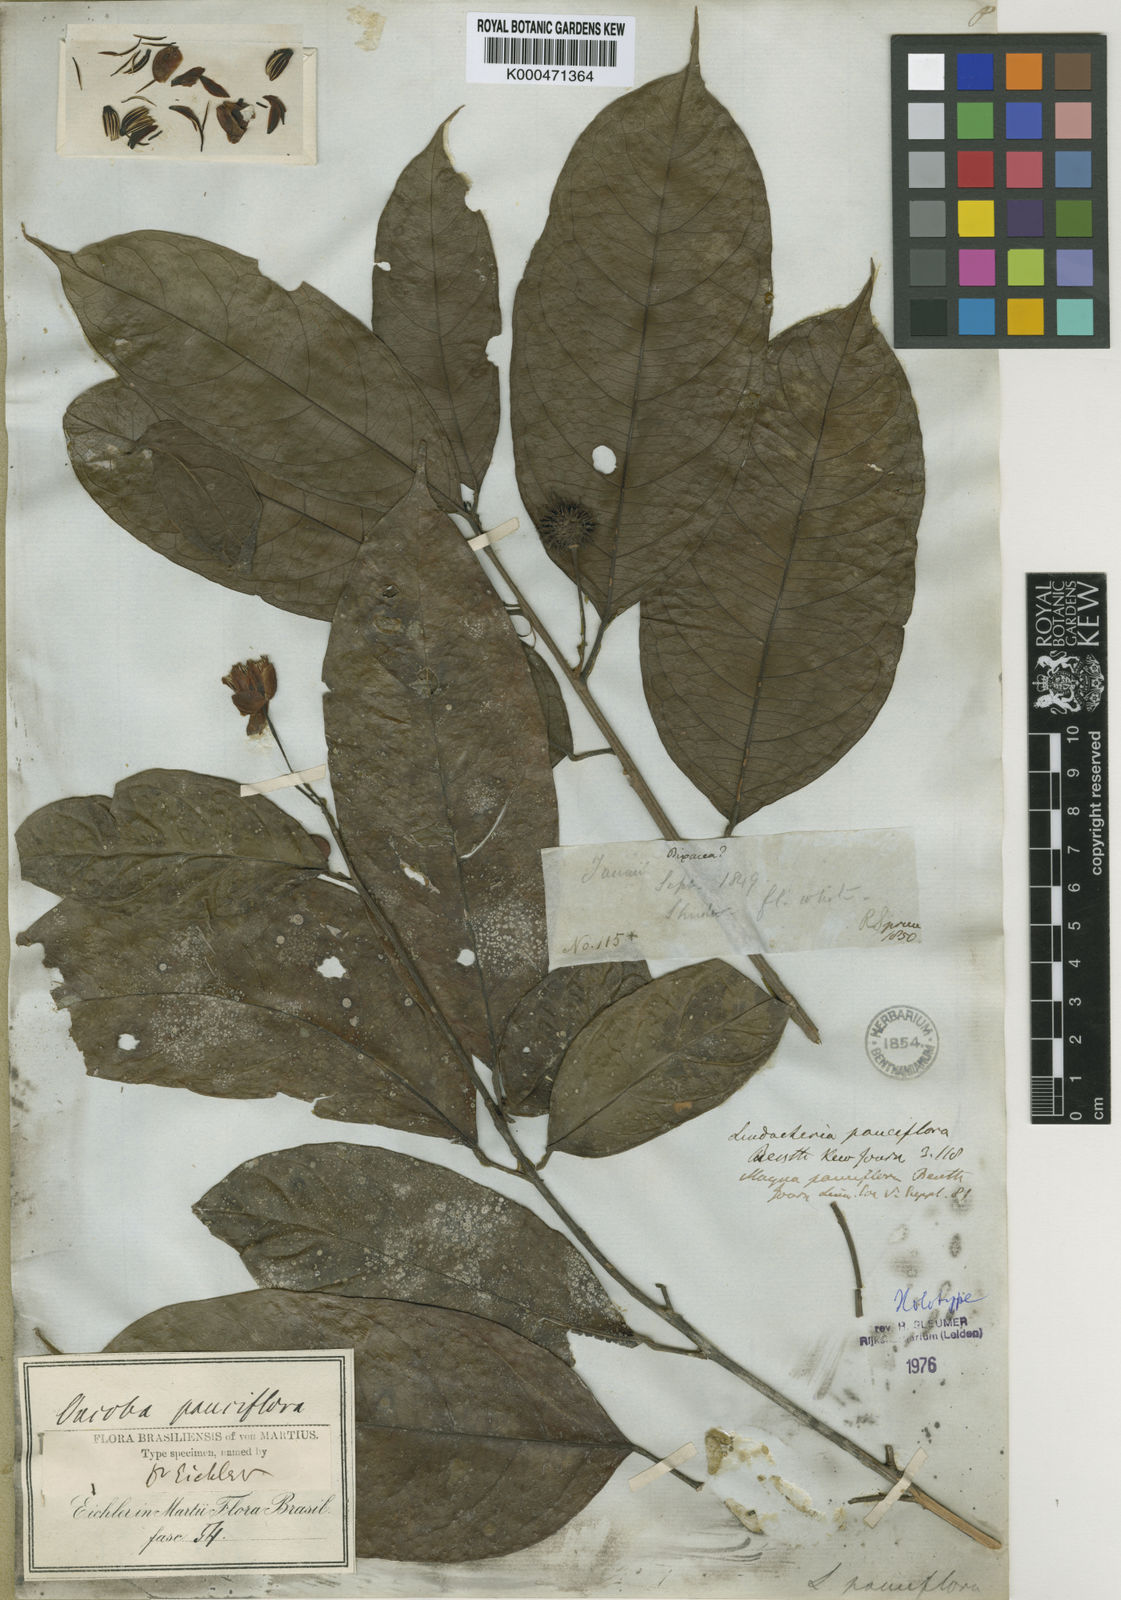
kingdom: Plantae
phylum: Tracheophyta
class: Magnoliopsida
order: Malpighiales
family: Achariaceae
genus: Lindackeria
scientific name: Lindackeria pauciflora
